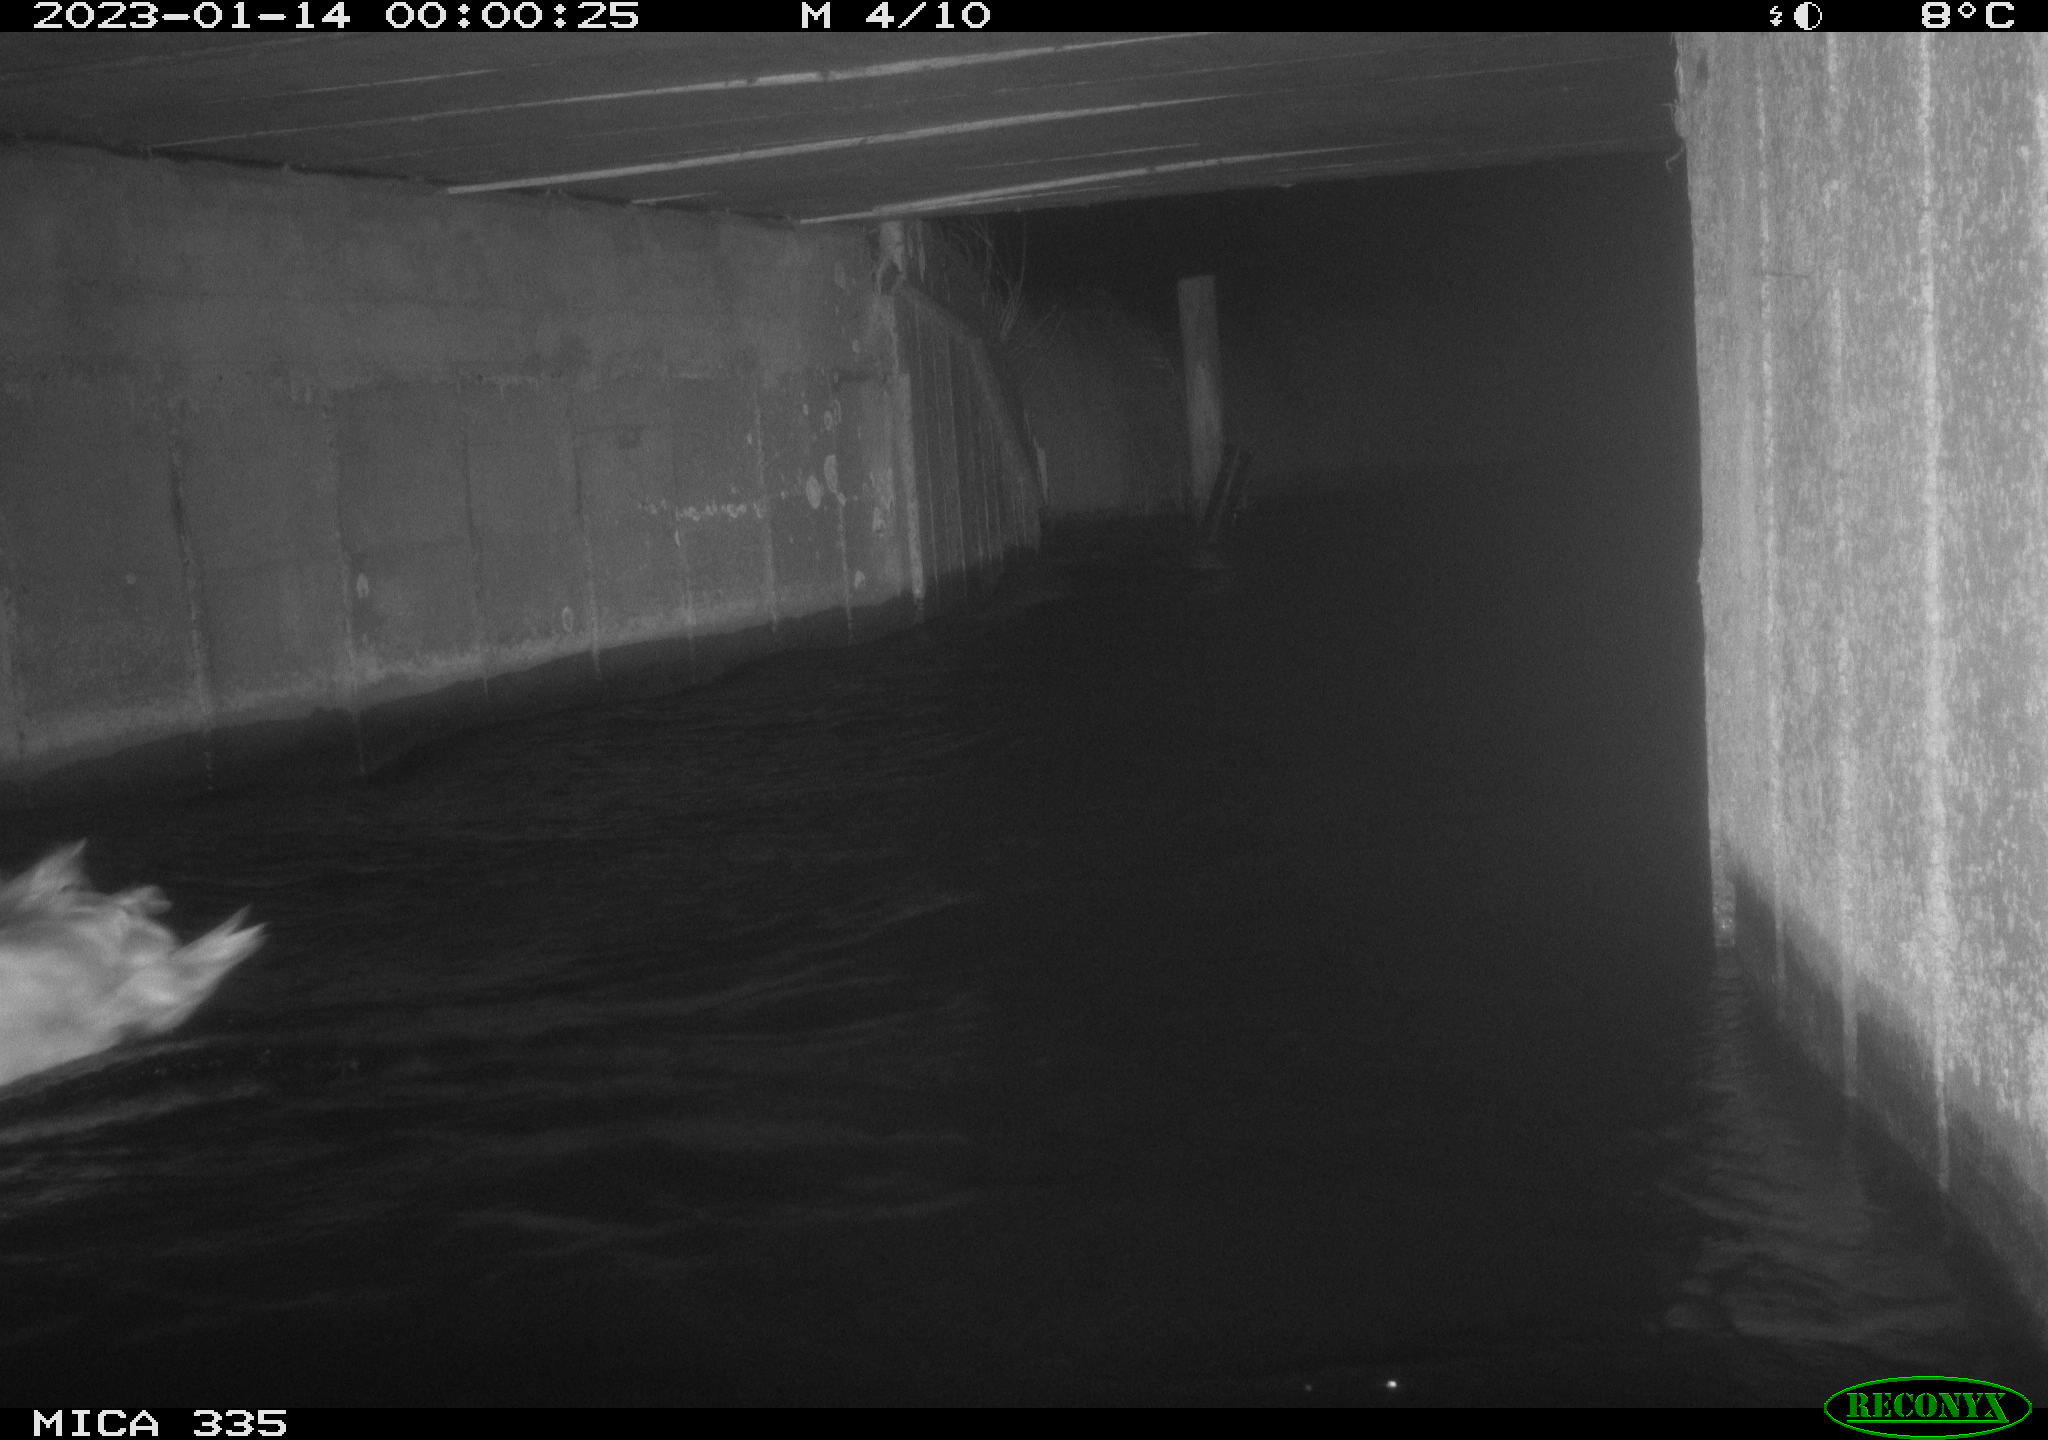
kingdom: Animalia
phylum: Chordata
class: Aves
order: Anseriformes
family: Anatidae
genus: Cygnus
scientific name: Cygnus olor
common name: Mute swan
